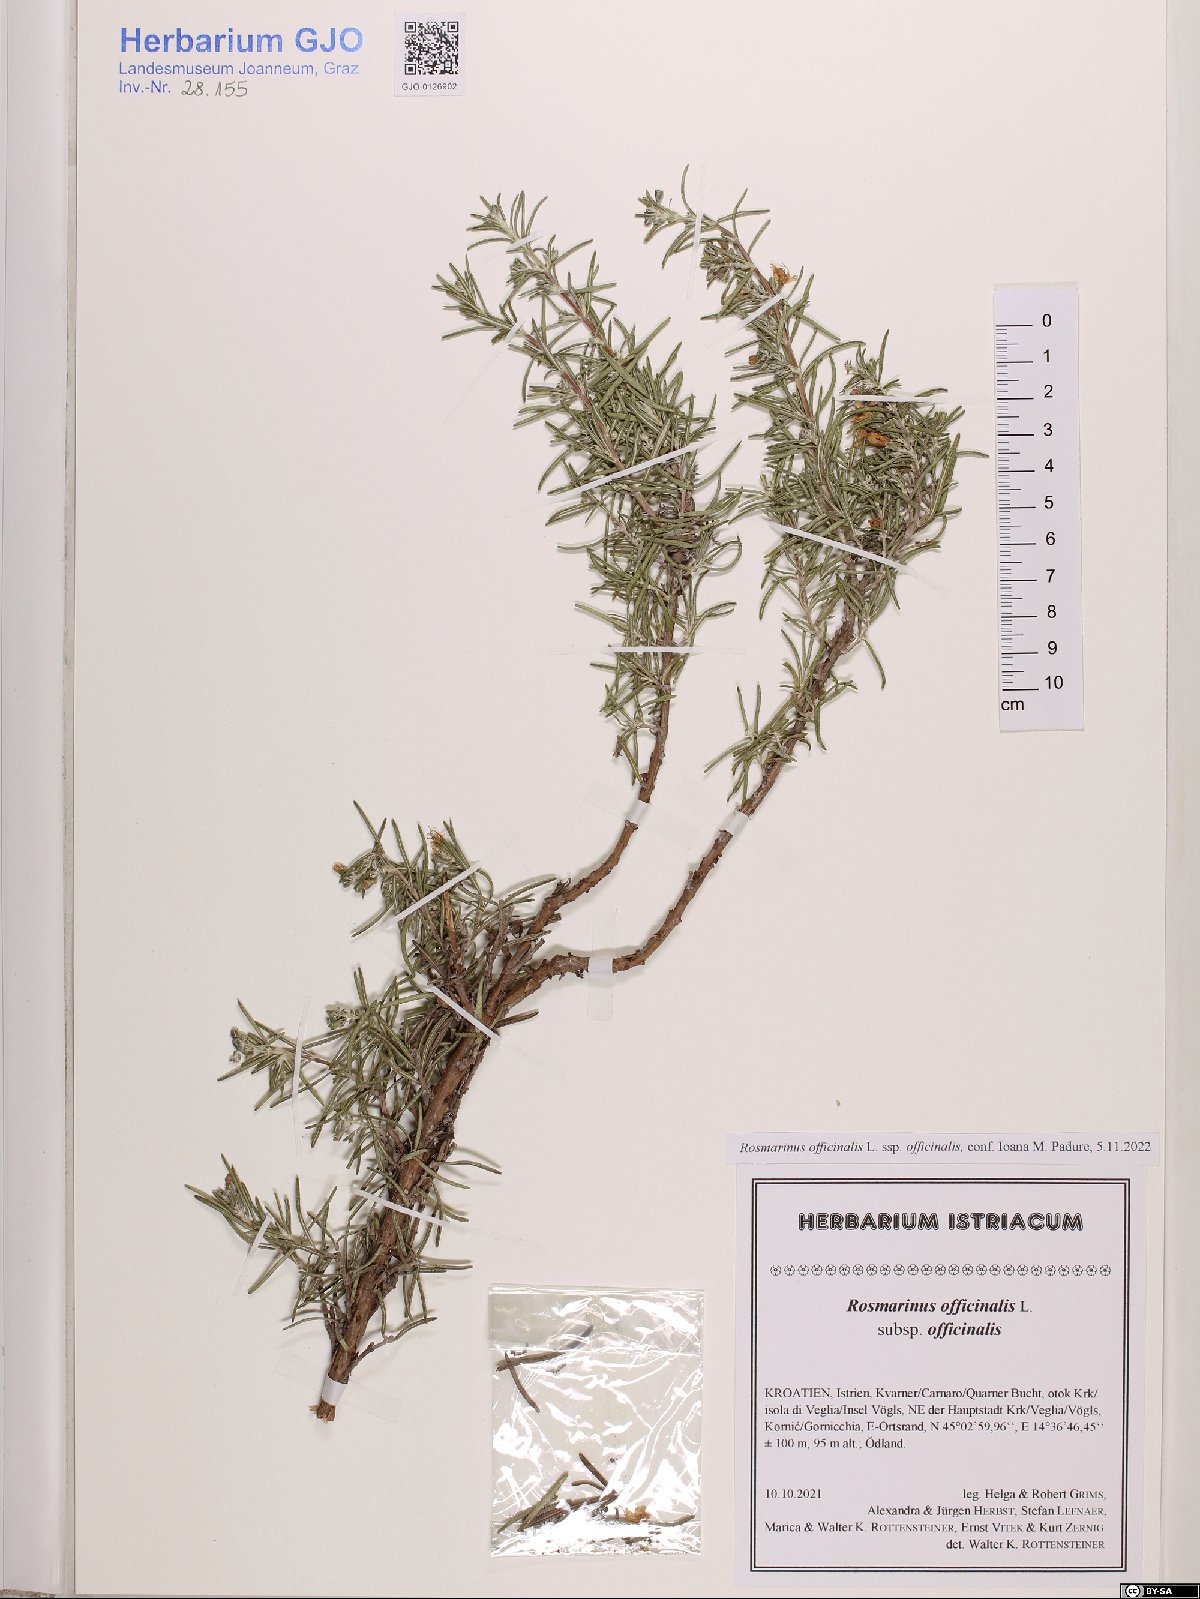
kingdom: Plantae
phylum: Tracheophyta
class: Magnoliopsida
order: Lamiales
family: Lamiaceae
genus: Salvia
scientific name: Salvia rosmarinus
